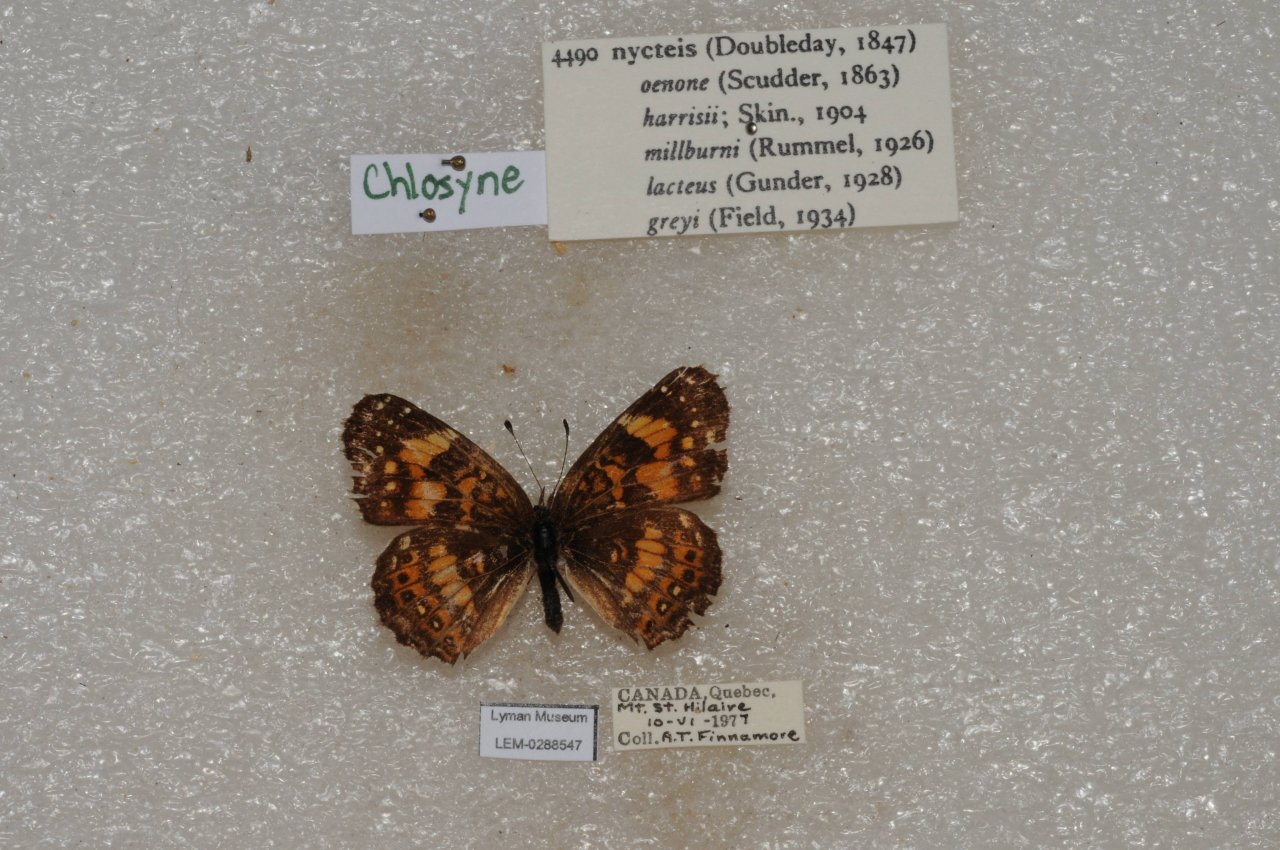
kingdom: Animalia
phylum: Arthropoda
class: Insecta
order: Lepidoptera
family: Nymphalidae
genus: Chlosyne
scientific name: Chlosyne nycteis
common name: Silvery Checkerspot
